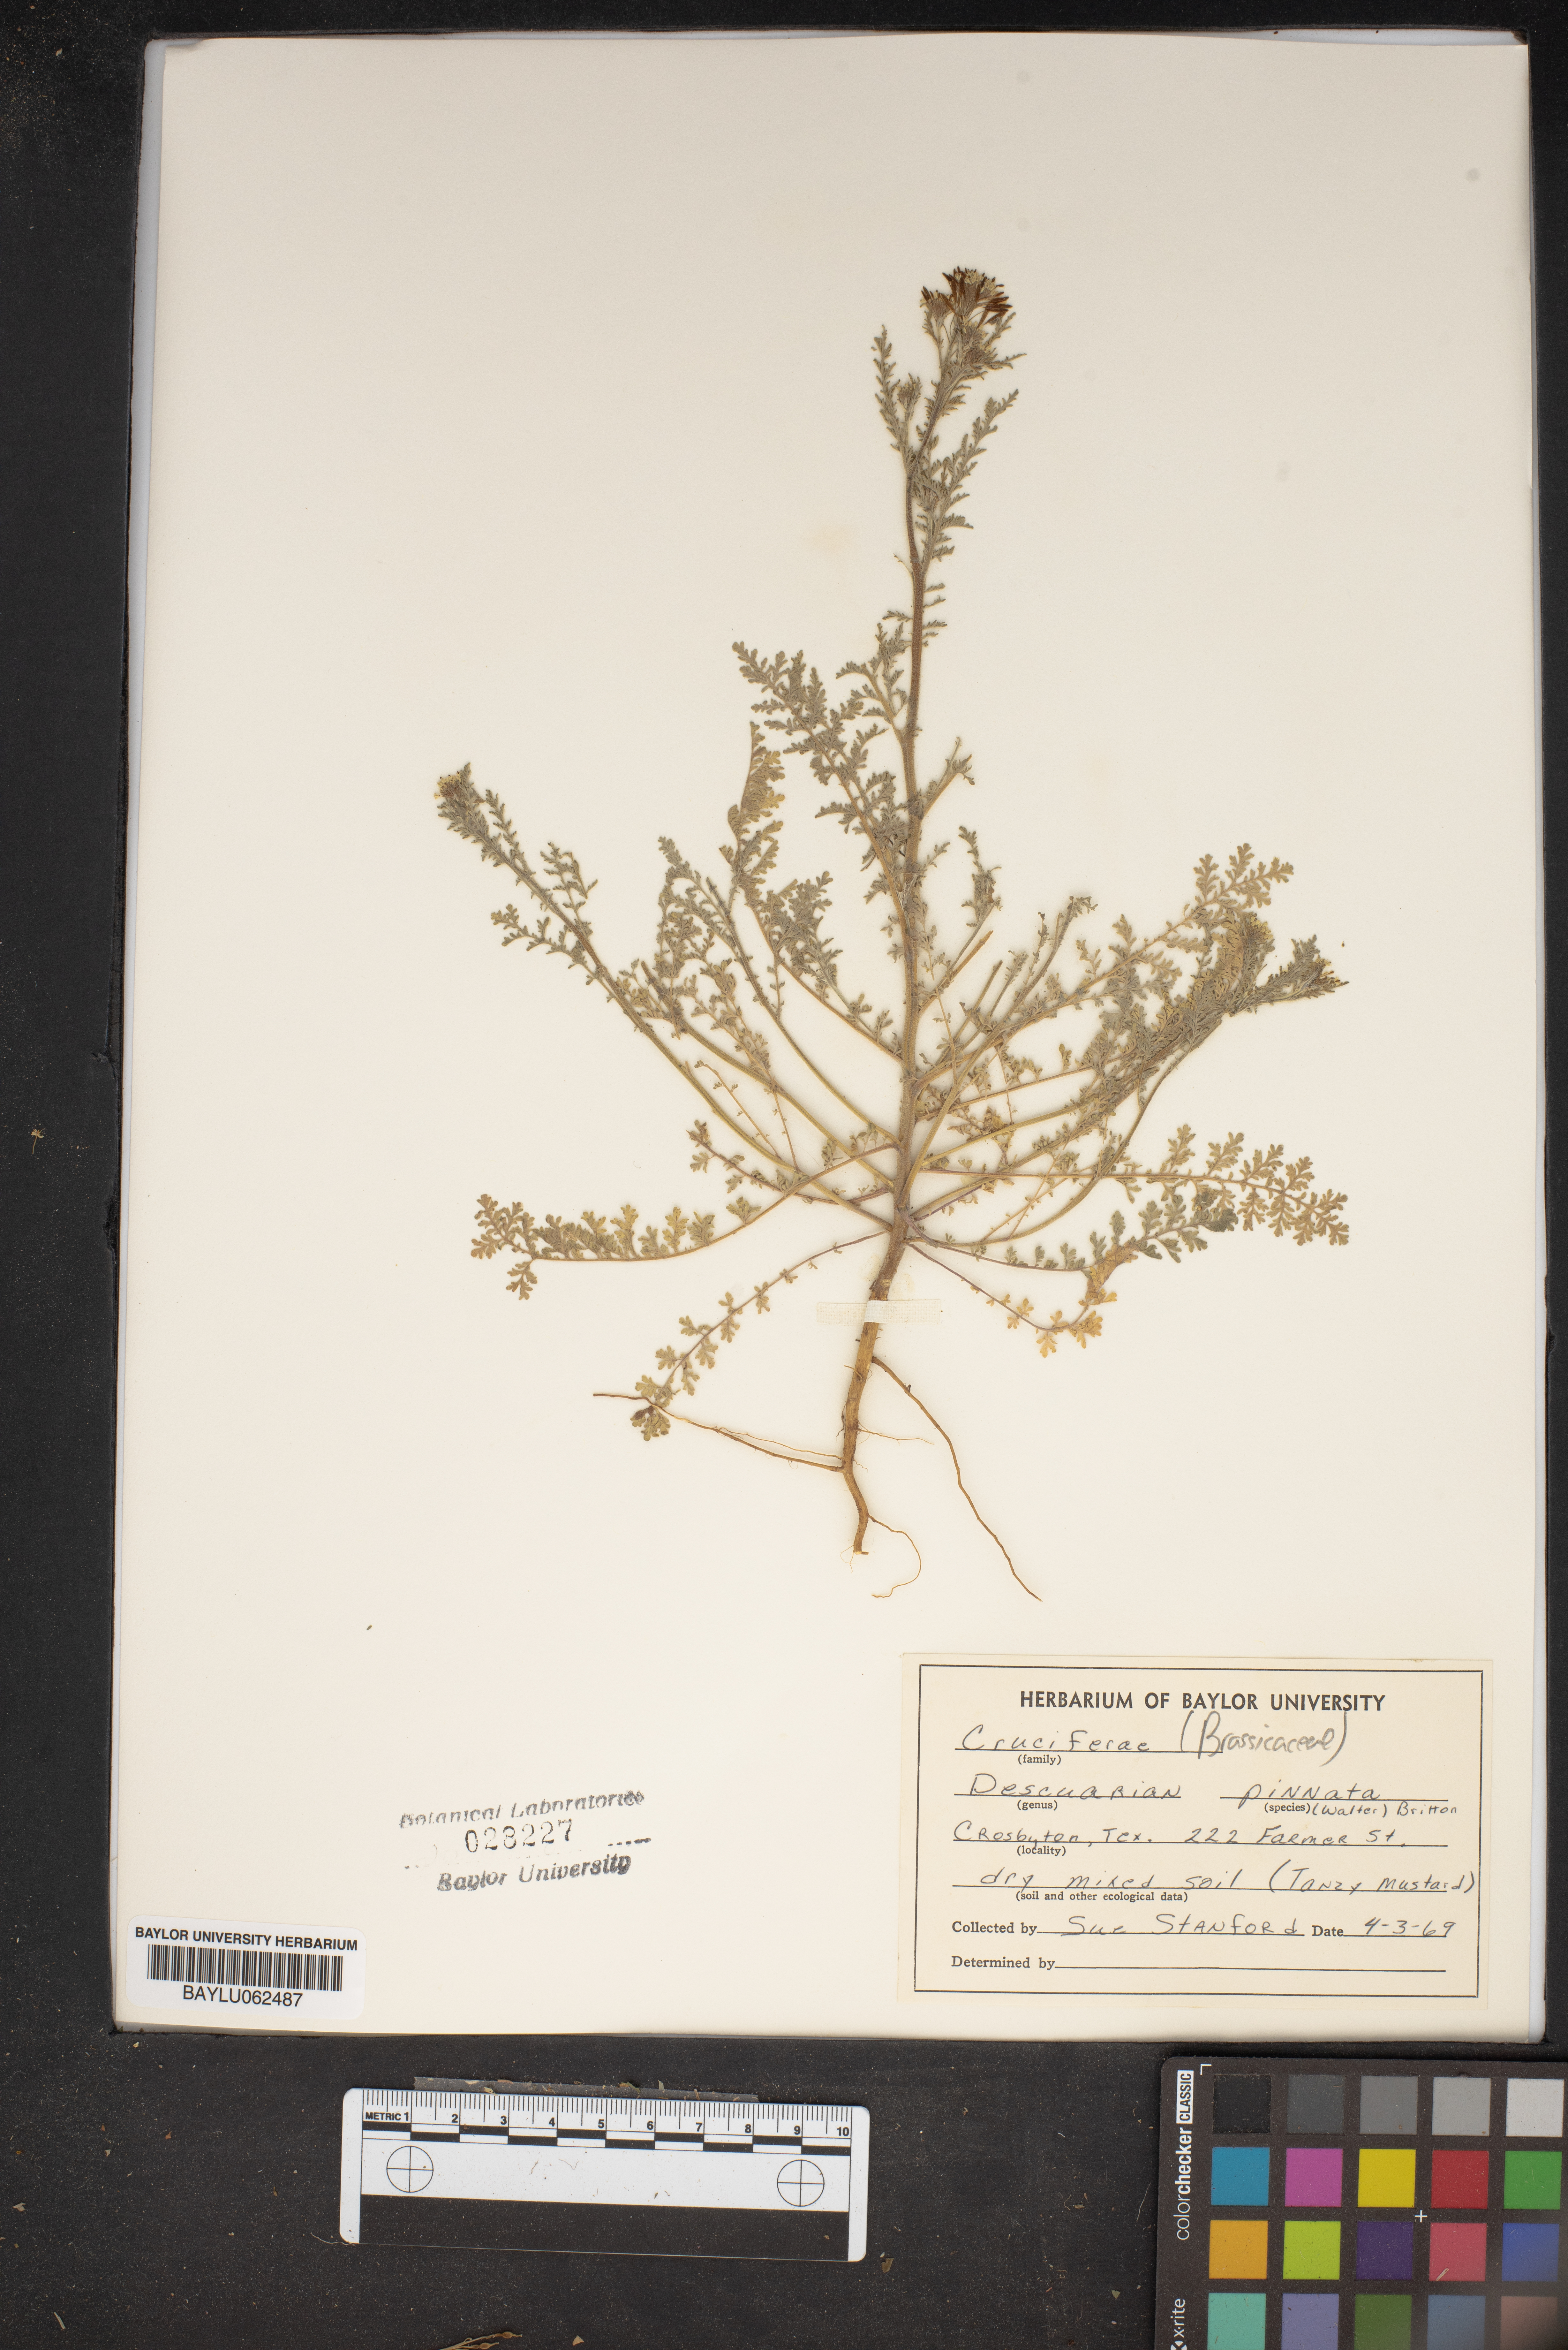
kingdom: Plantae
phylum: Tracheophyta
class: Magnoliopsida
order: Brassicales
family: Brassicaceae
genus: Descurainia
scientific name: Descurainia pinnata
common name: Western tansy mustard
